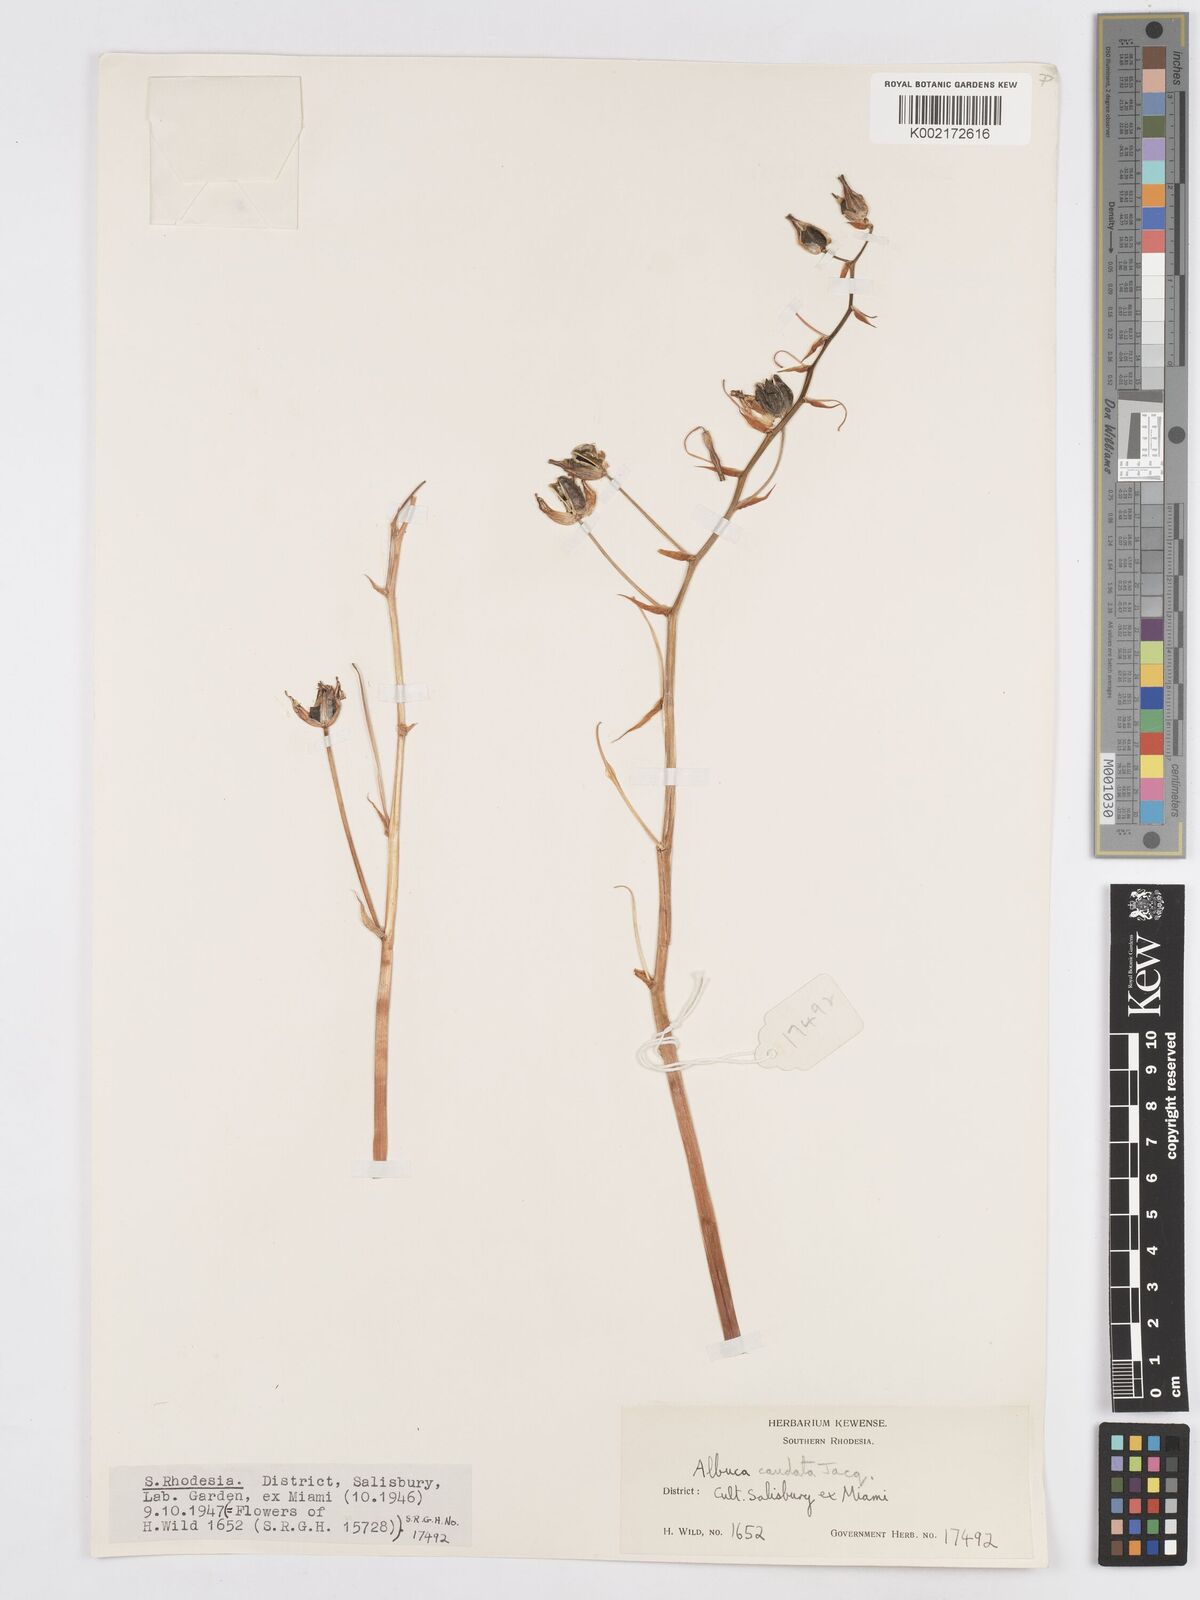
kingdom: Plantae
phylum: Tracheophyta
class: Liliopsida
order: Asparagales
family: Asparagaceae
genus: Albuca
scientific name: Albuca kirkii
